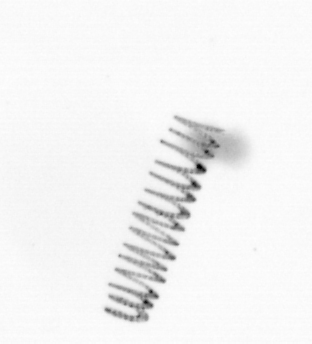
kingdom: Chromista
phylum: Ochrophyta
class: Bacillariophyceae
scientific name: Bacillariophyceae
